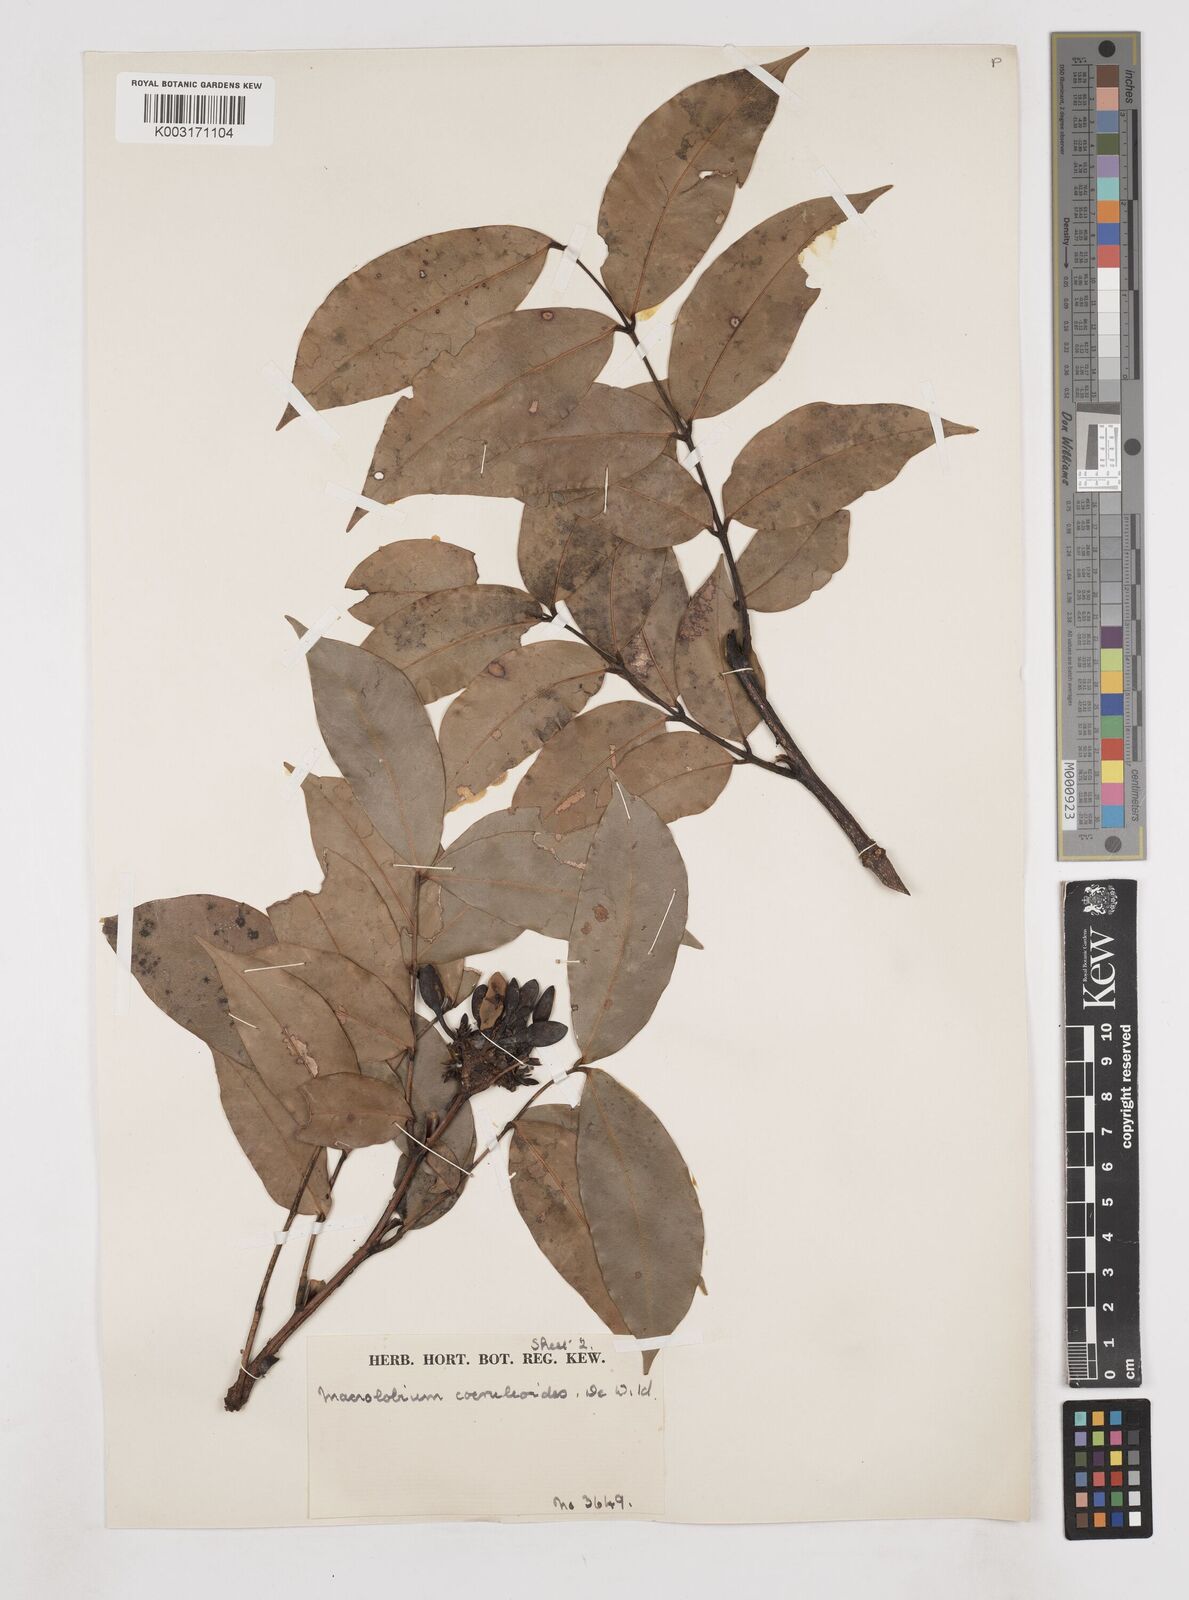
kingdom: Plantae
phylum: Tracheophyta
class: Magnoliopsida
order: Fabales
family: Fabaceae
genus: Paramacrolobium
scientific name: Paramacrolobium coeruleum
